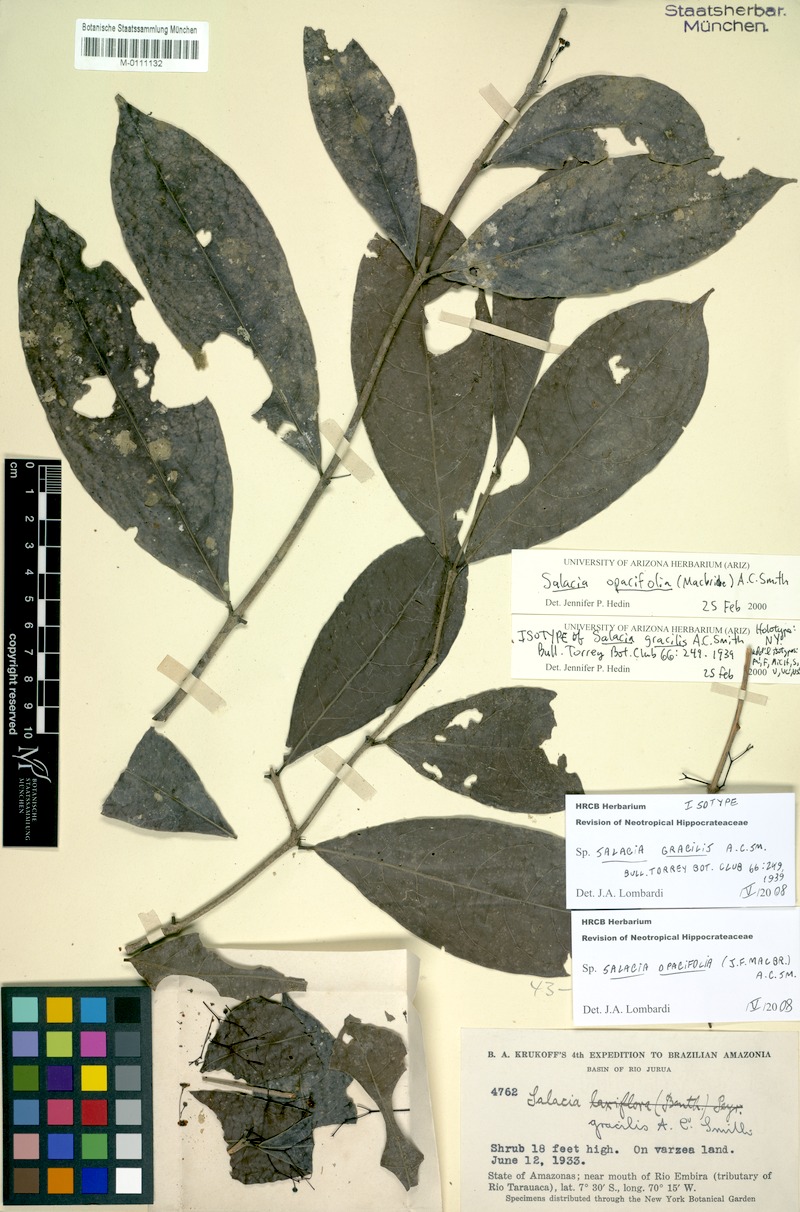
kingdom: Plantae
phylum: Tracheophyta
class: Magnoliopsida
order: Celastrales
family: Celastraceae
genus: Salacia
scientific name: Salacia opacifolia
